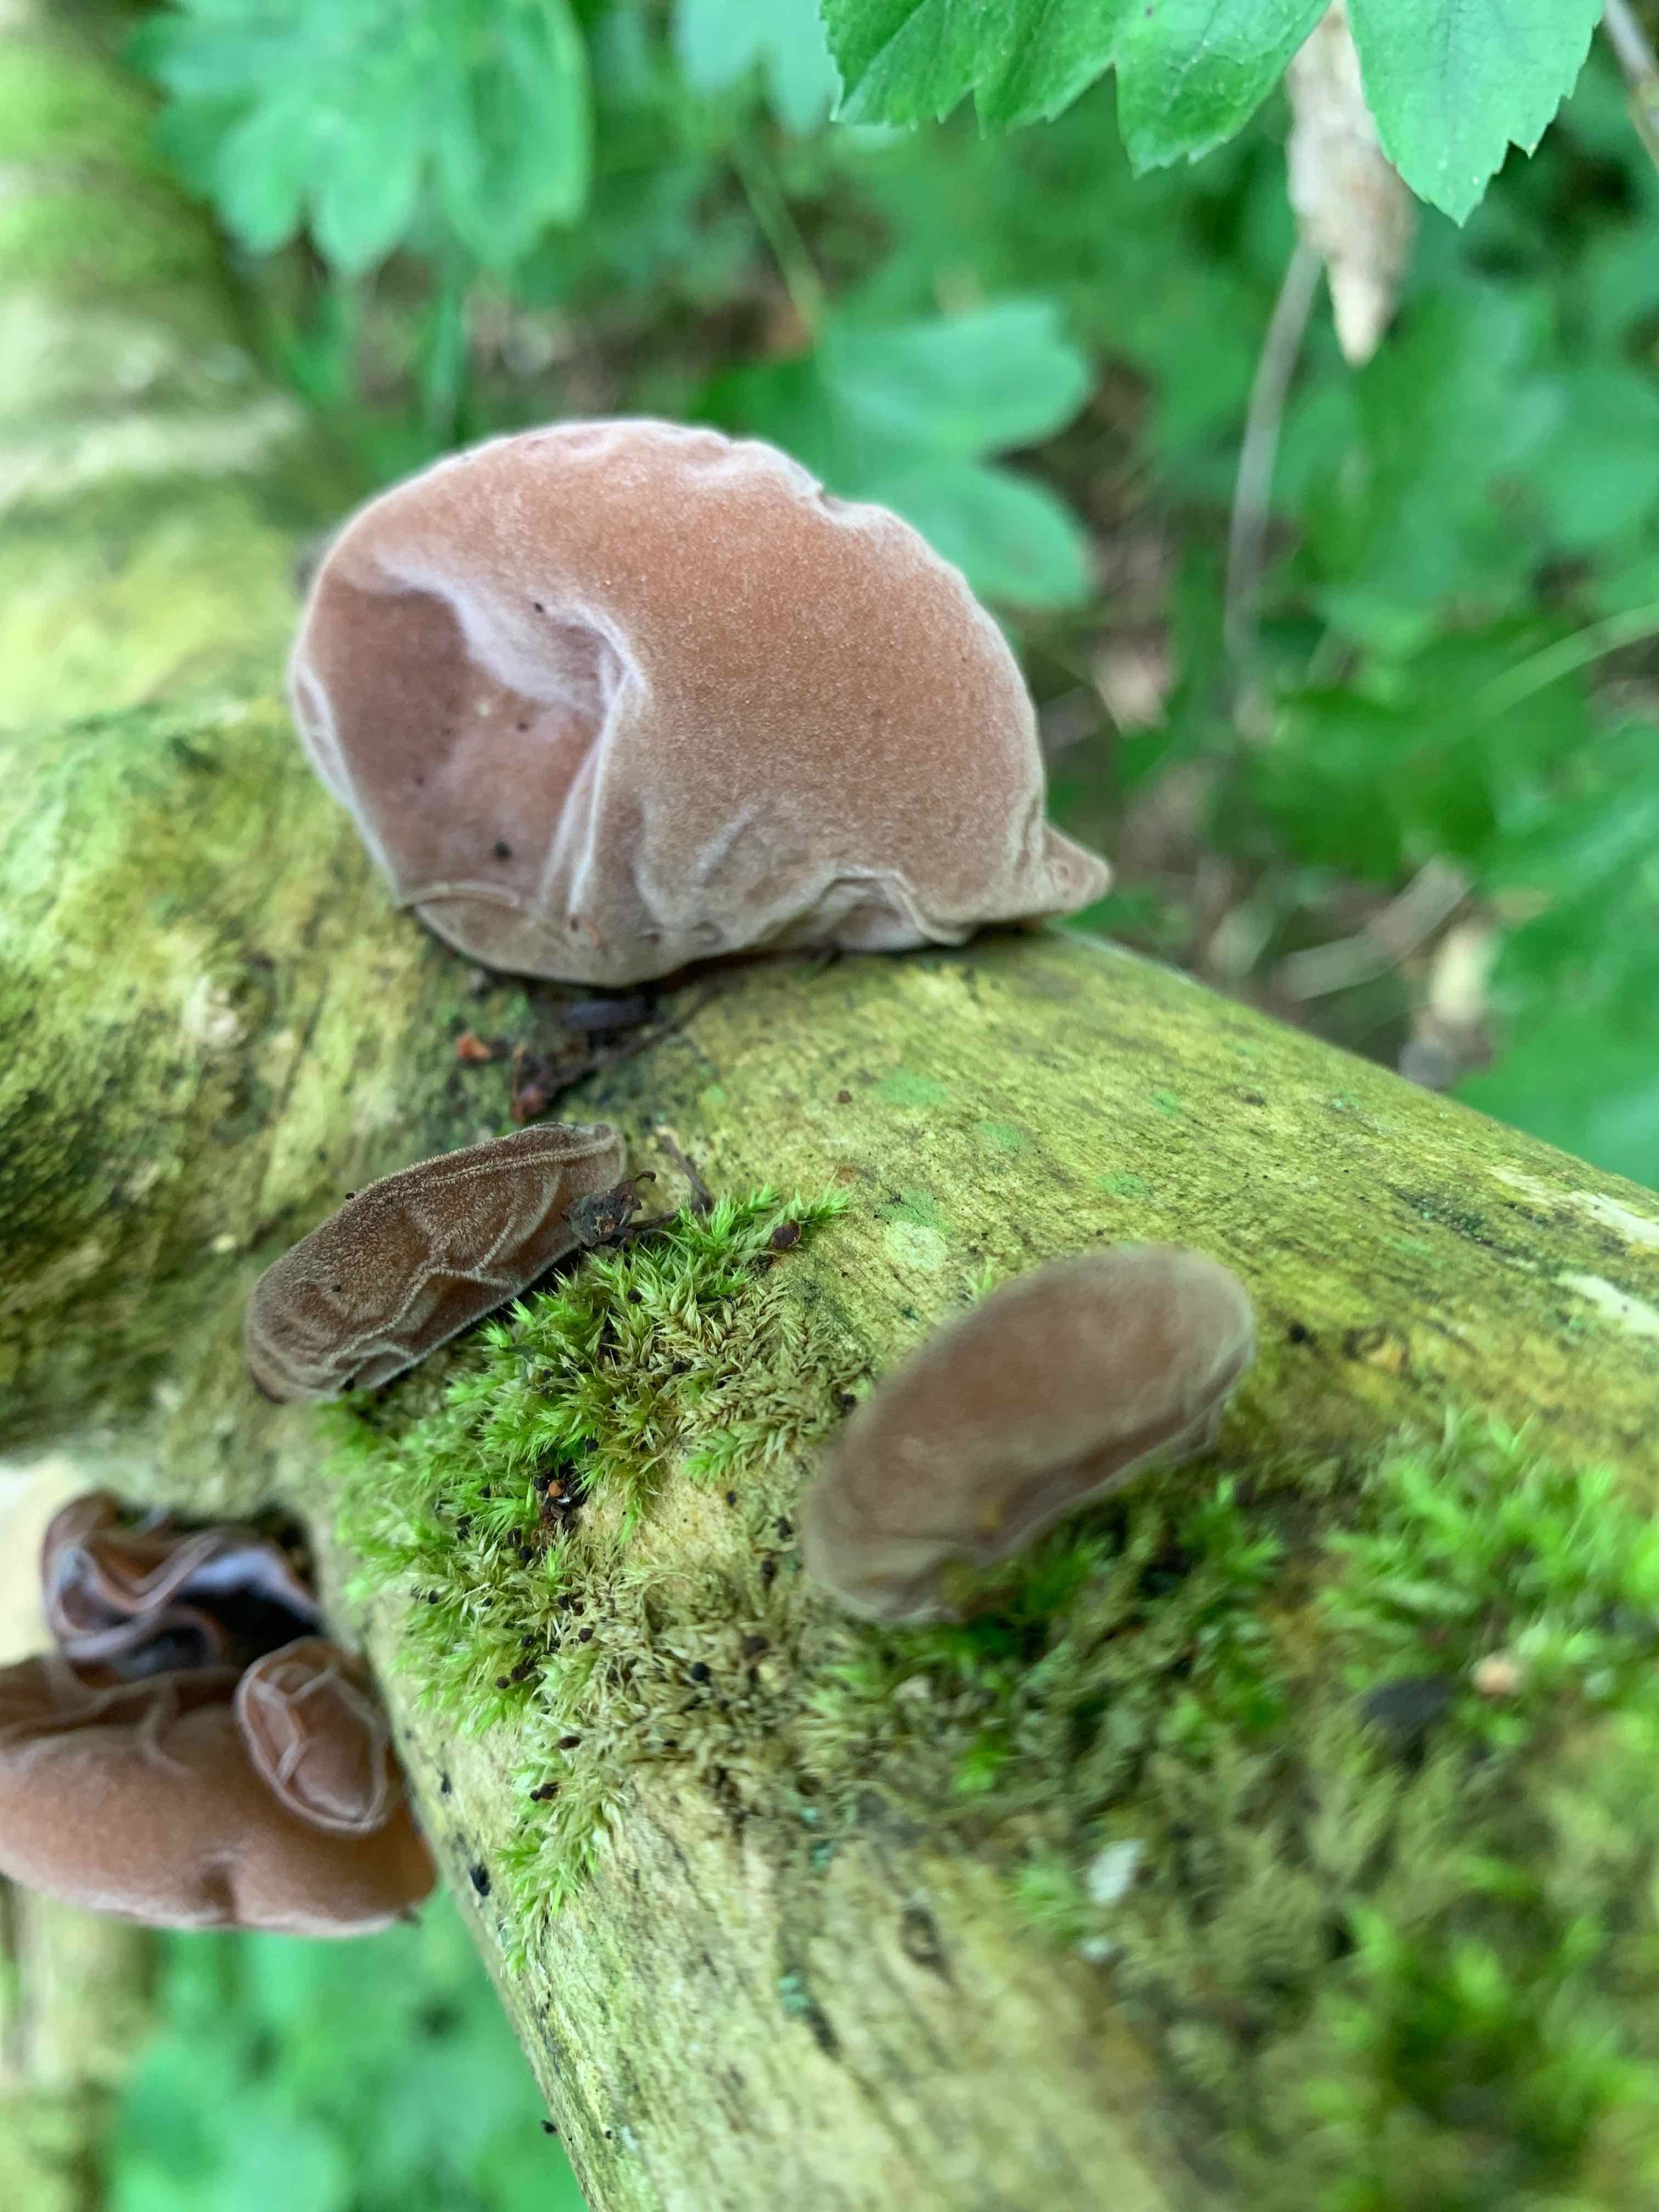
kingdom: Fungi
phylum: Basidiomycota
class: Agaricomycetes
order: Auriculariales
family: Auriculariaceae
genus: Auricularia
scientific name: Auricularia auricula-judae
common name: almindelig judasøre
